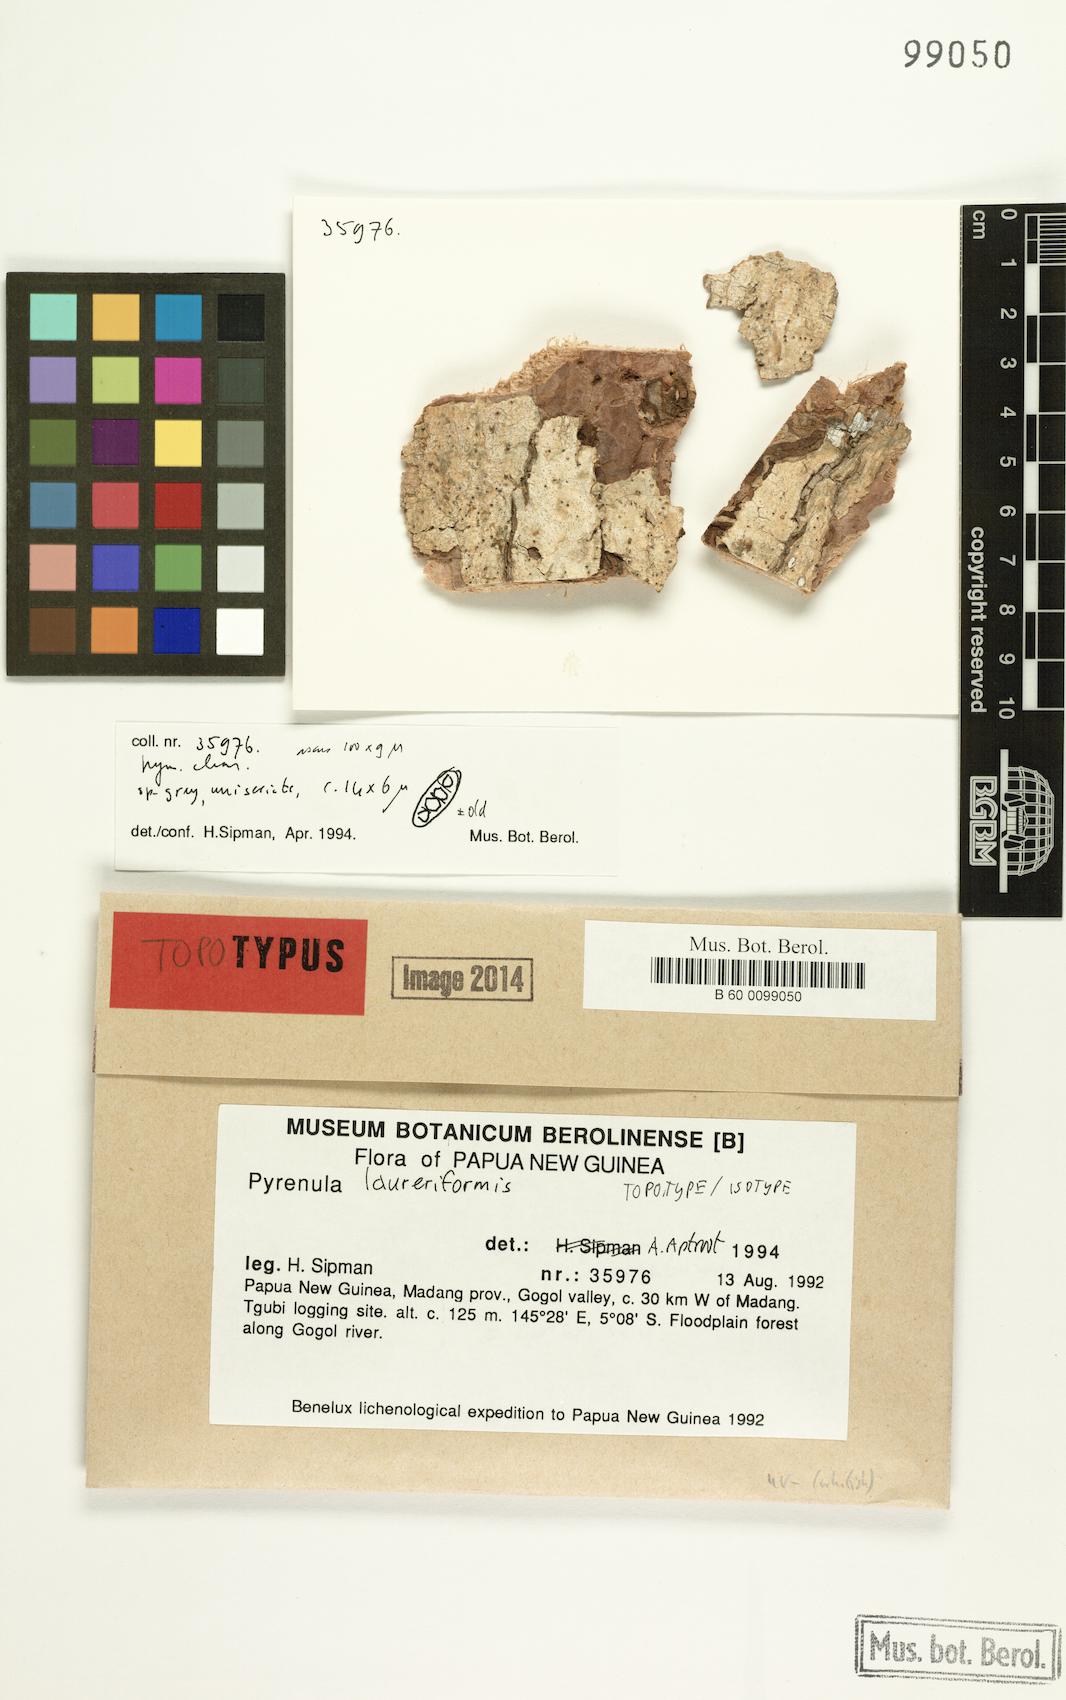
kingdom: Fungi
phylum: Ascomycota
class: Eurotiomycetes
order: Pyrenulales
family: Pyrenulaceae
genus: Pyrenula
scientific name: Pyrenula
